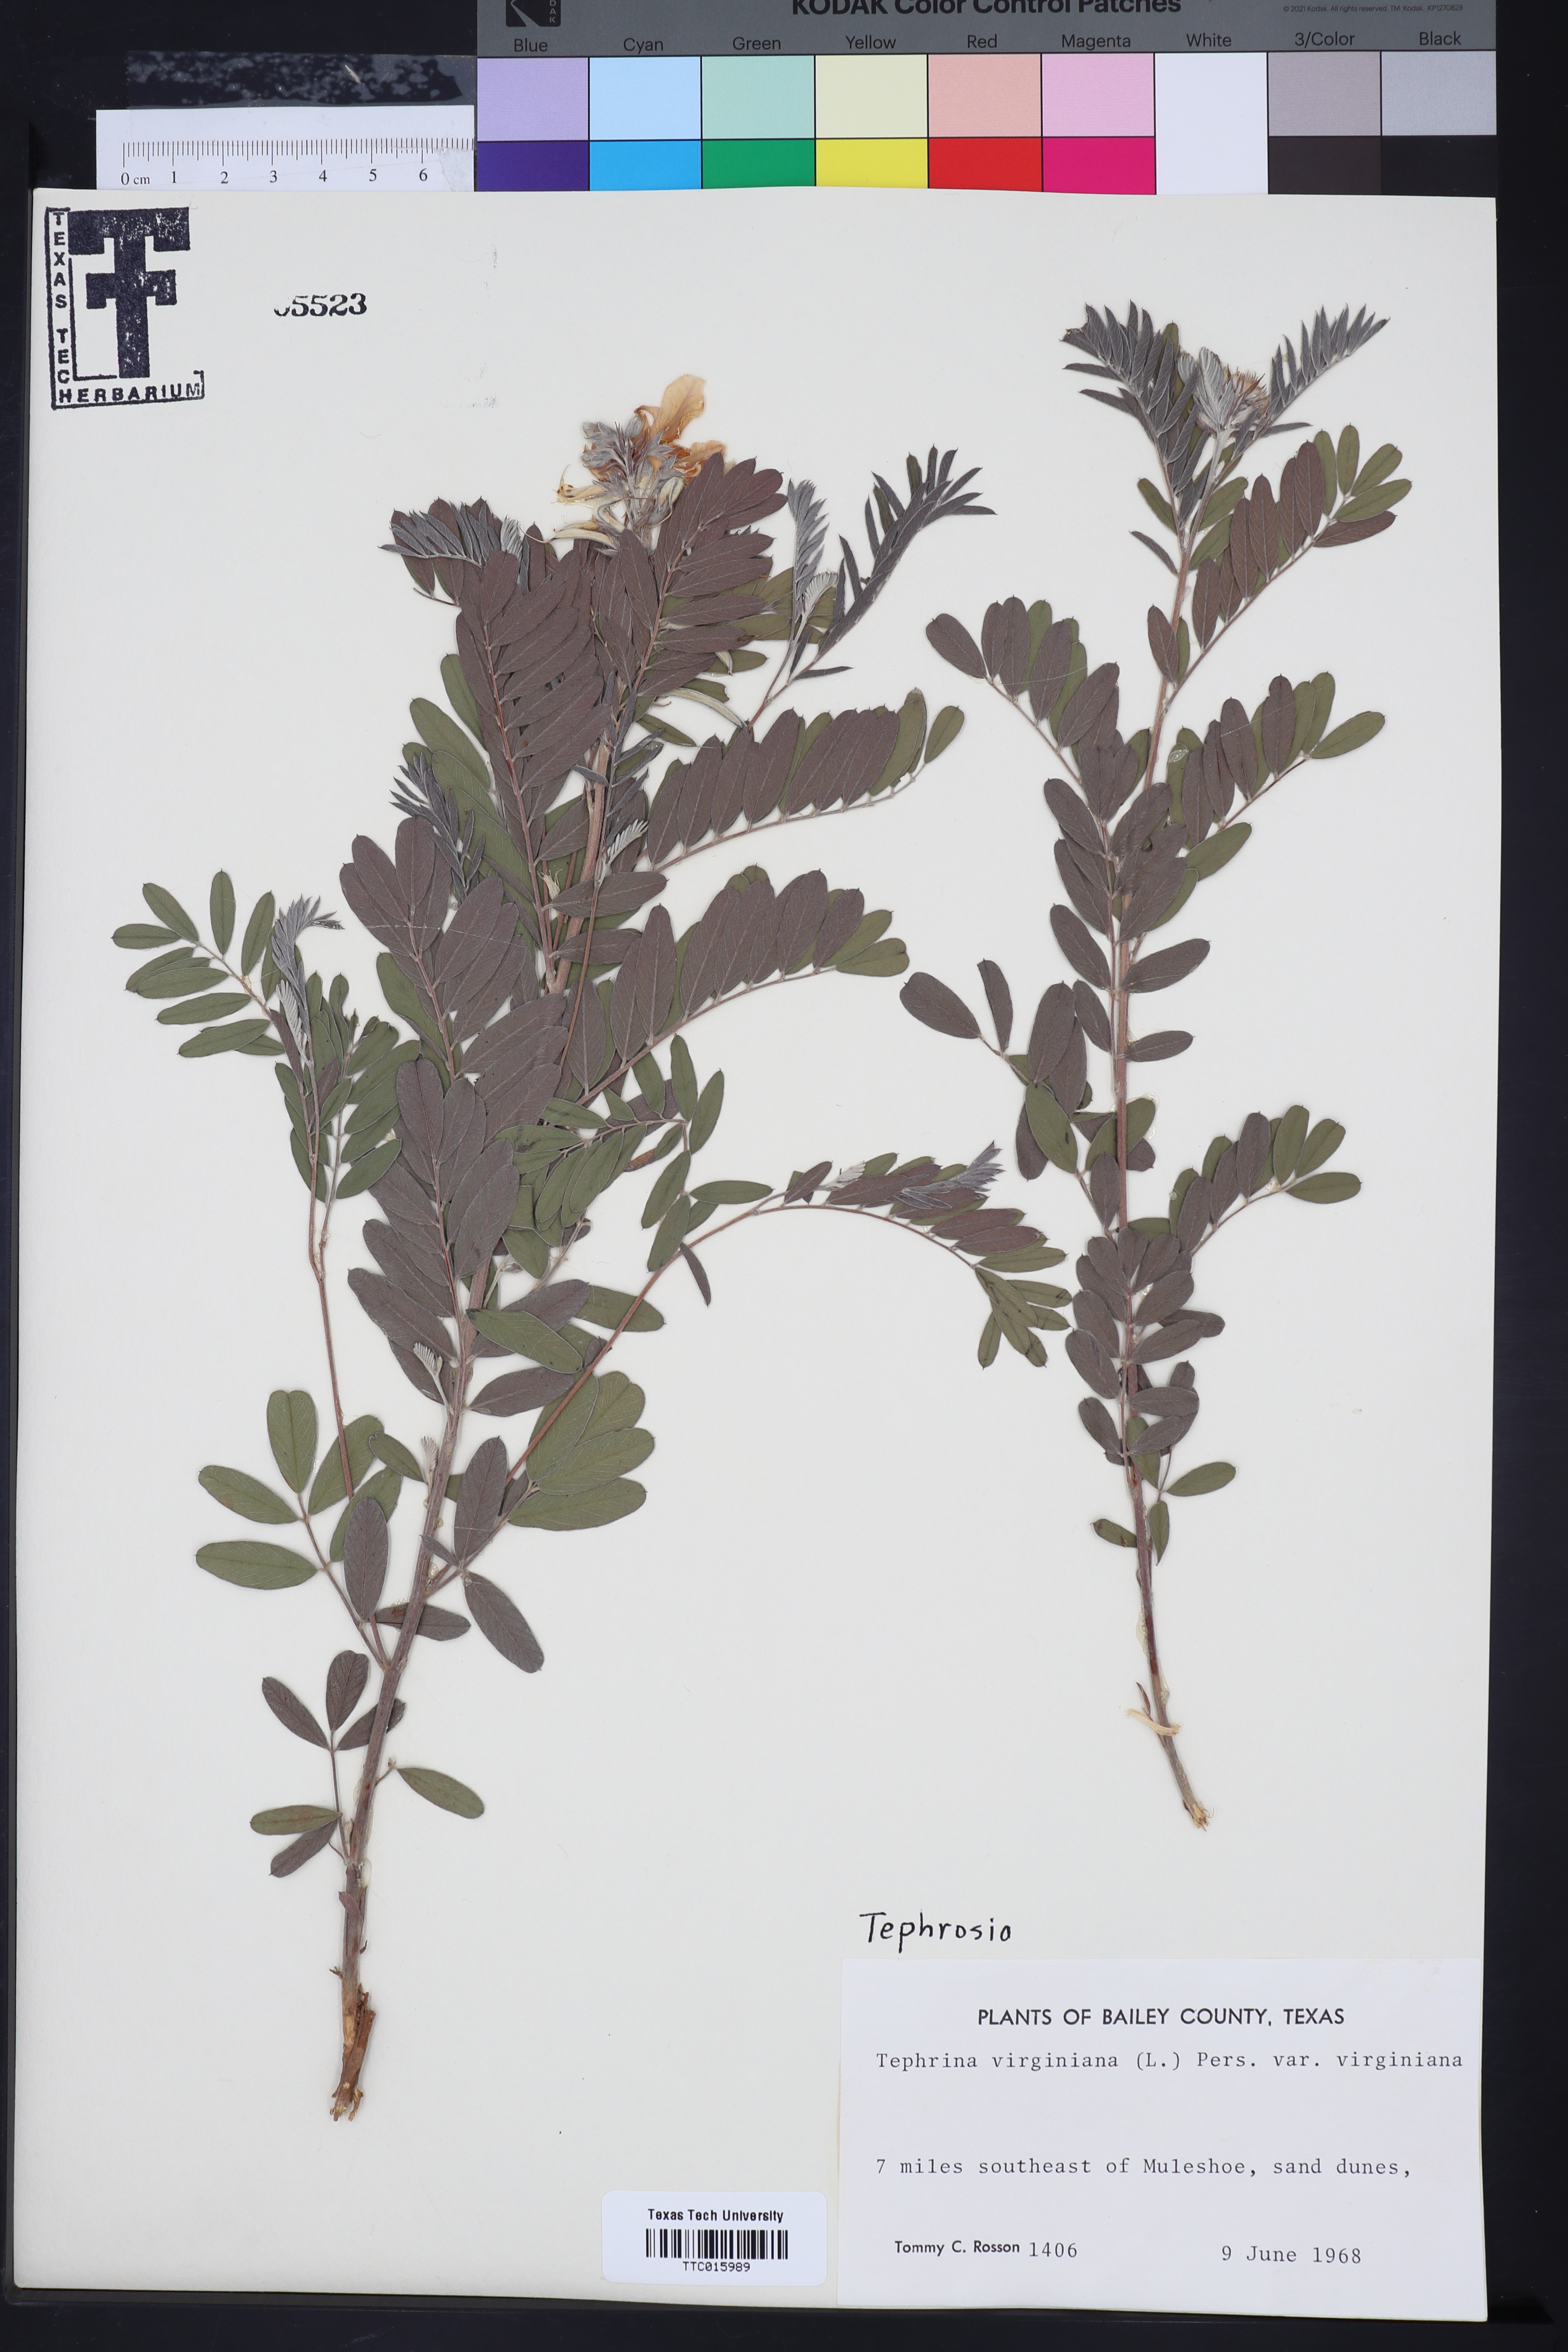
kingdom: Plantae
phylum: Tracheophyta
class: Magnoliopsida
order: Fabales
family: Fabaceae
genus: Tephrosia
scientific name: Tephrosia virginiana
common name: Rabbit-pea
